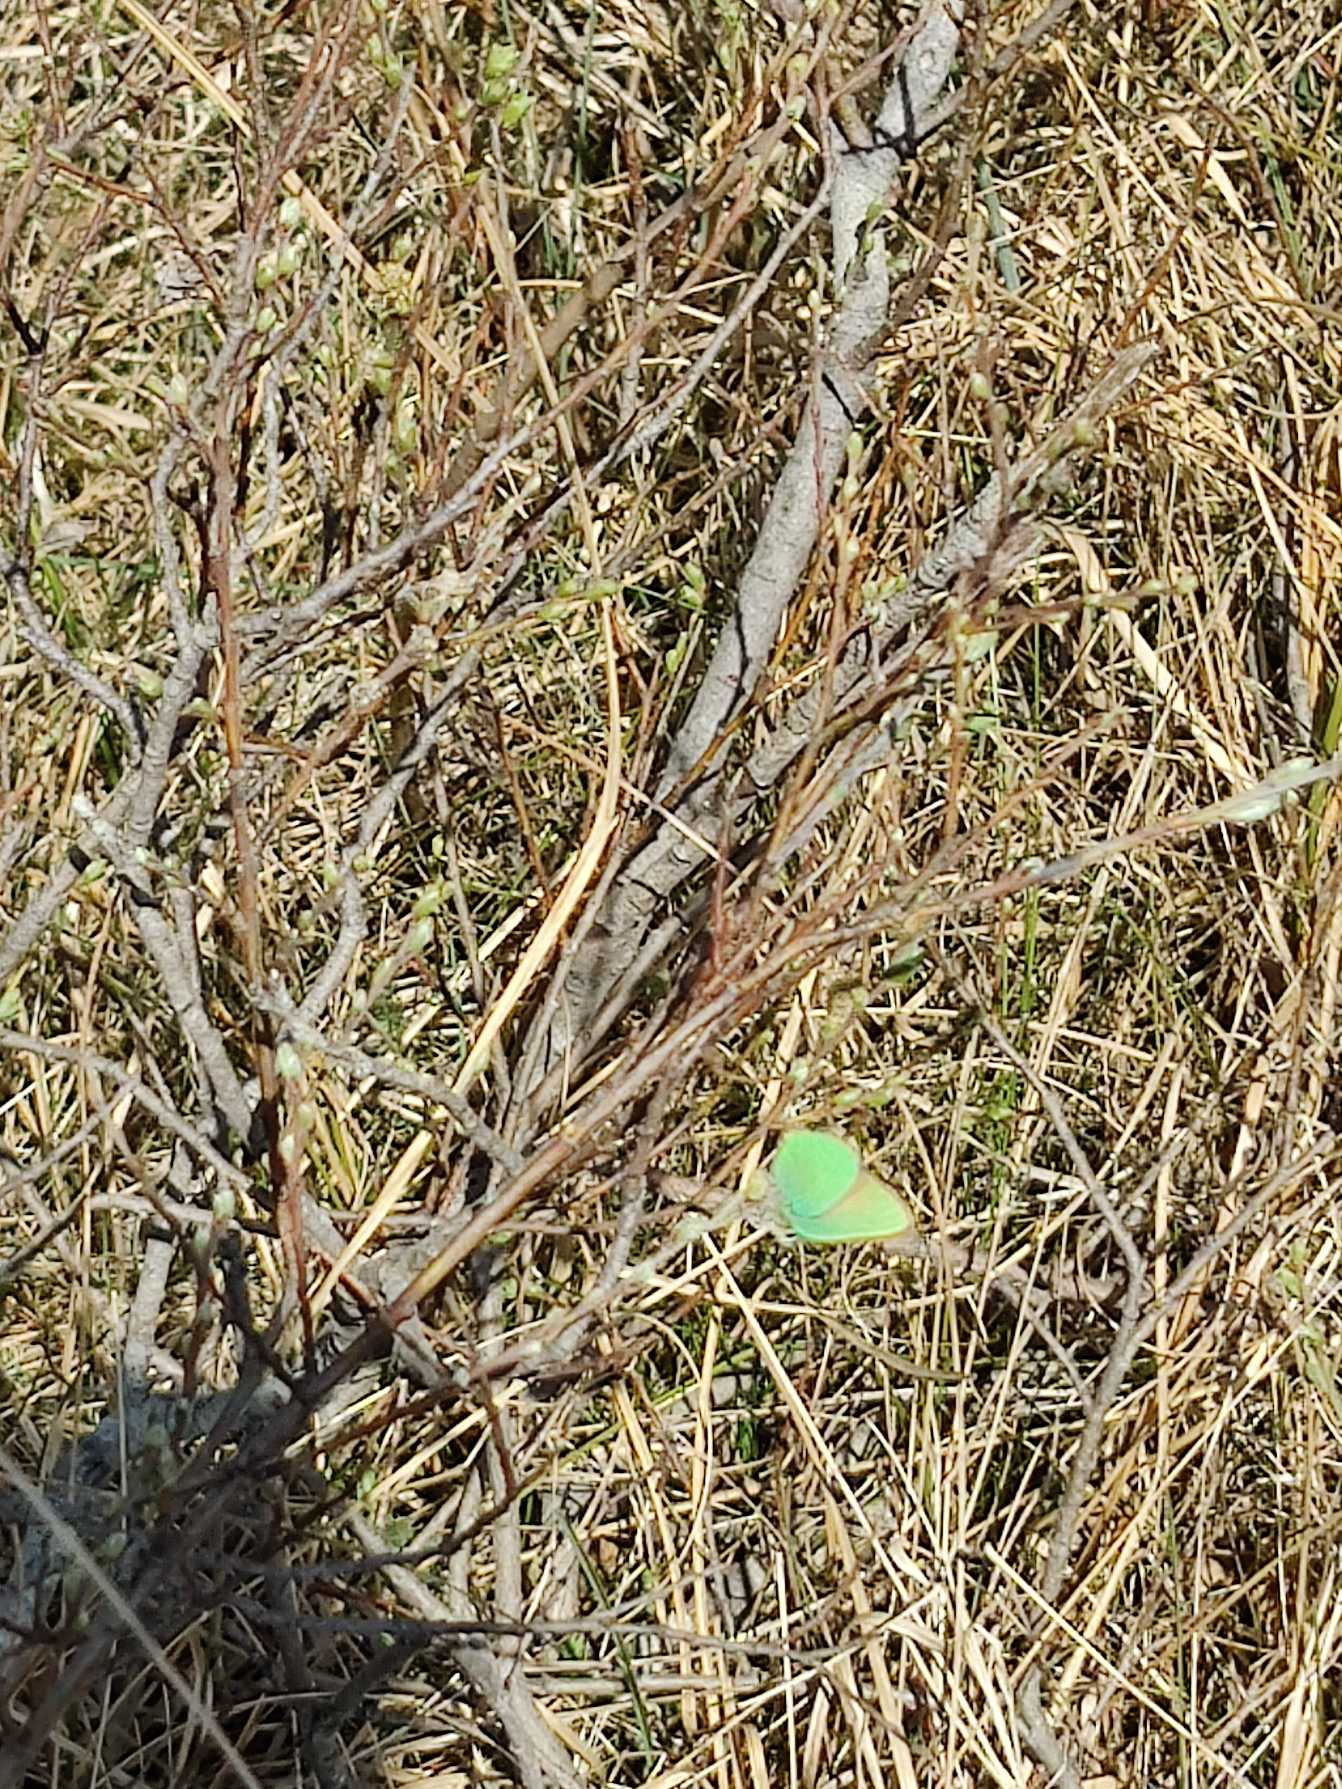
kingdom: Animalia
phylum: Arthropoda
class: Insecta
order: Lepidoptera
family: Lycaenidae
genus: Callophrys
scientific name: Callophrys rubi
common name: Grøn busksommerfugl
